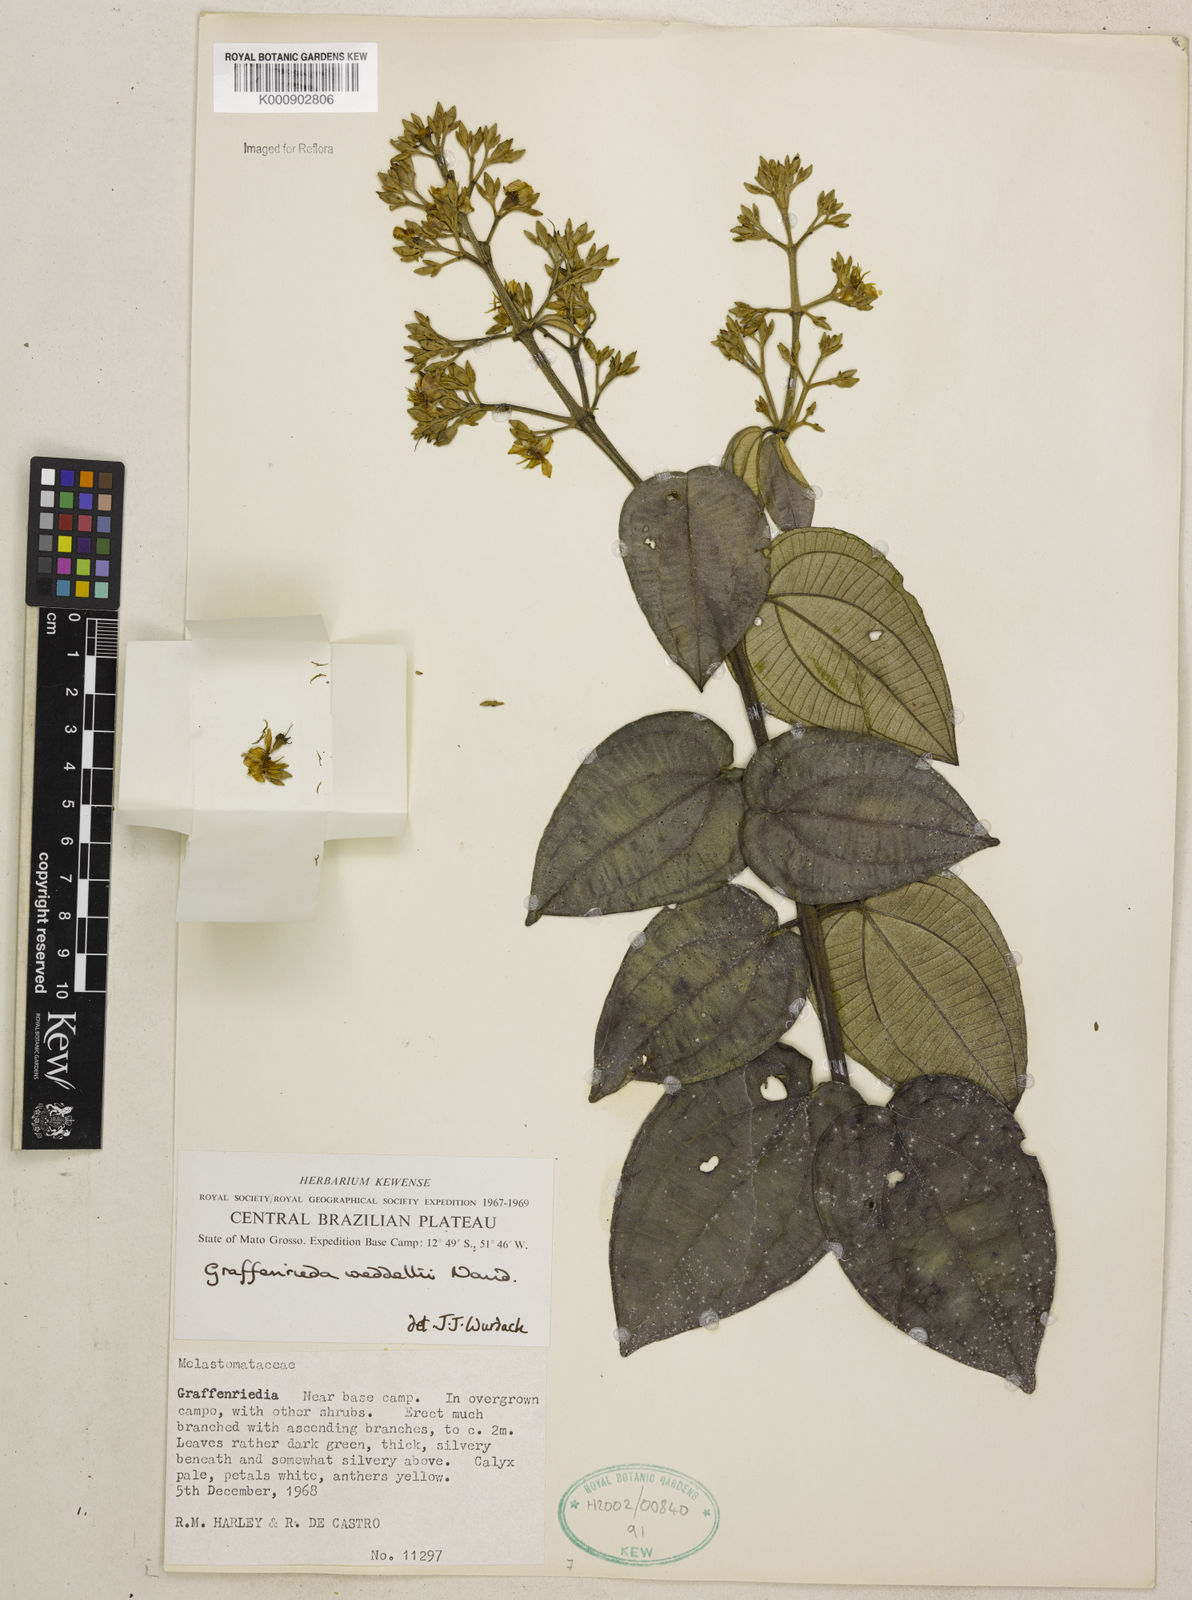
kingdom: Plantae
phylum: Tracheophyta
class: Magnoliopsida
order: Myrtales
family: Melastomataceae
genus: Graffenrieda
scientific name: Graffenrieda weddellii
